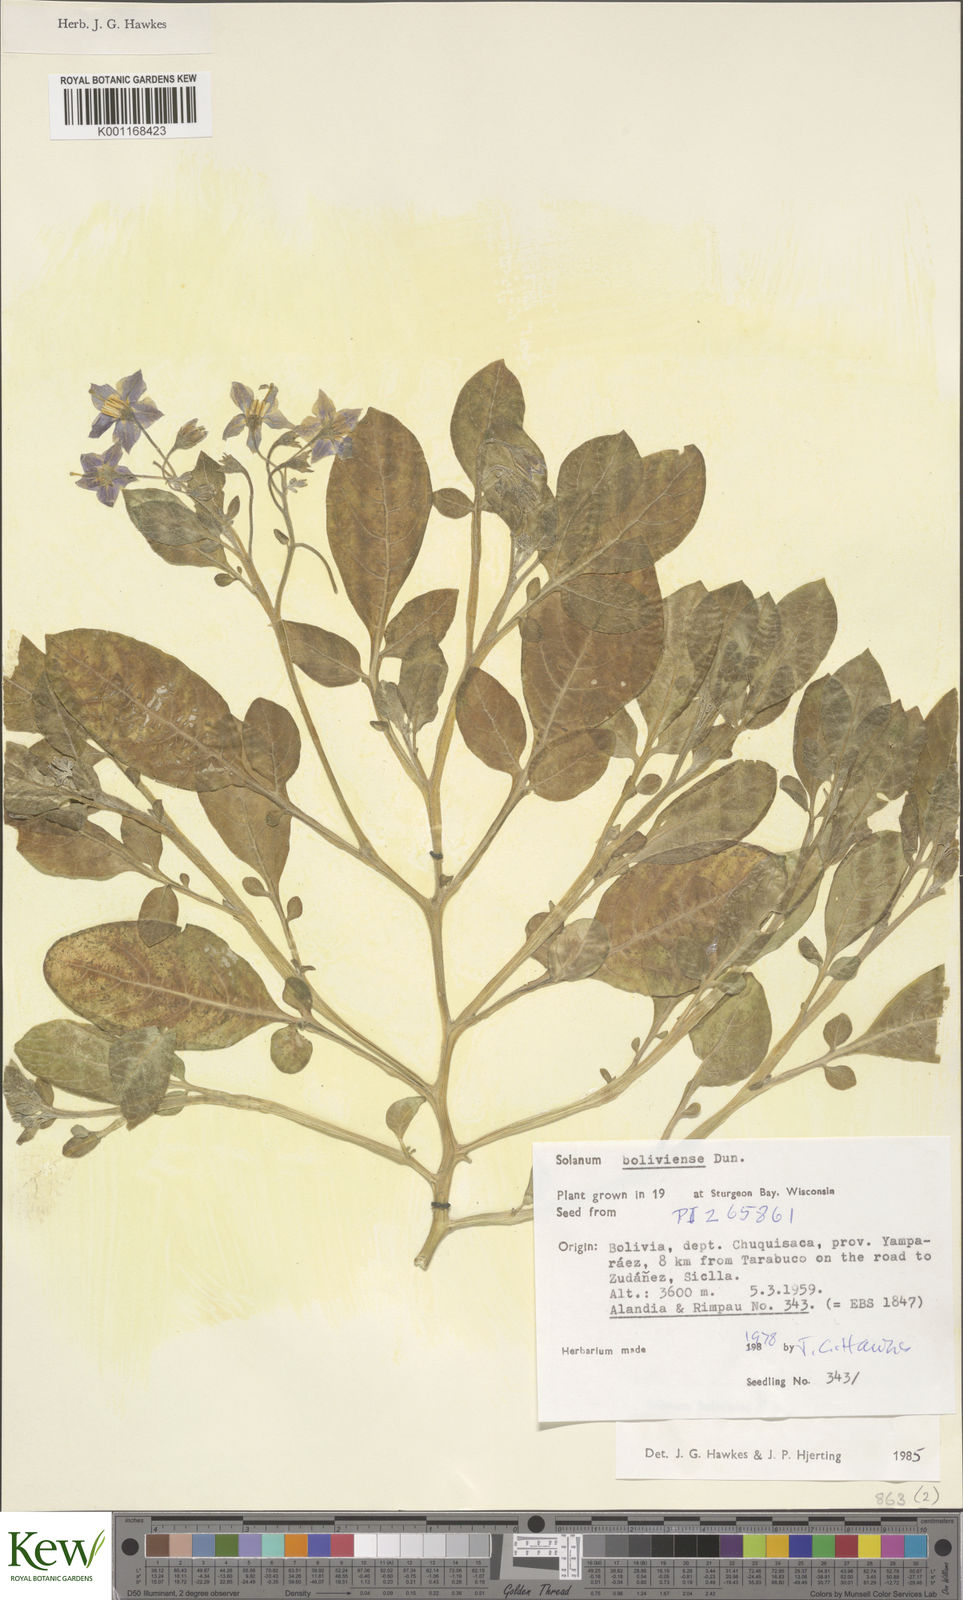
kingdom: Plantae
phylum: Tracheophyta
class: Magnoliopsida
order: Solanales
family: Solanaceae
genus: Solanum
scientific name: Solanum boliviense
